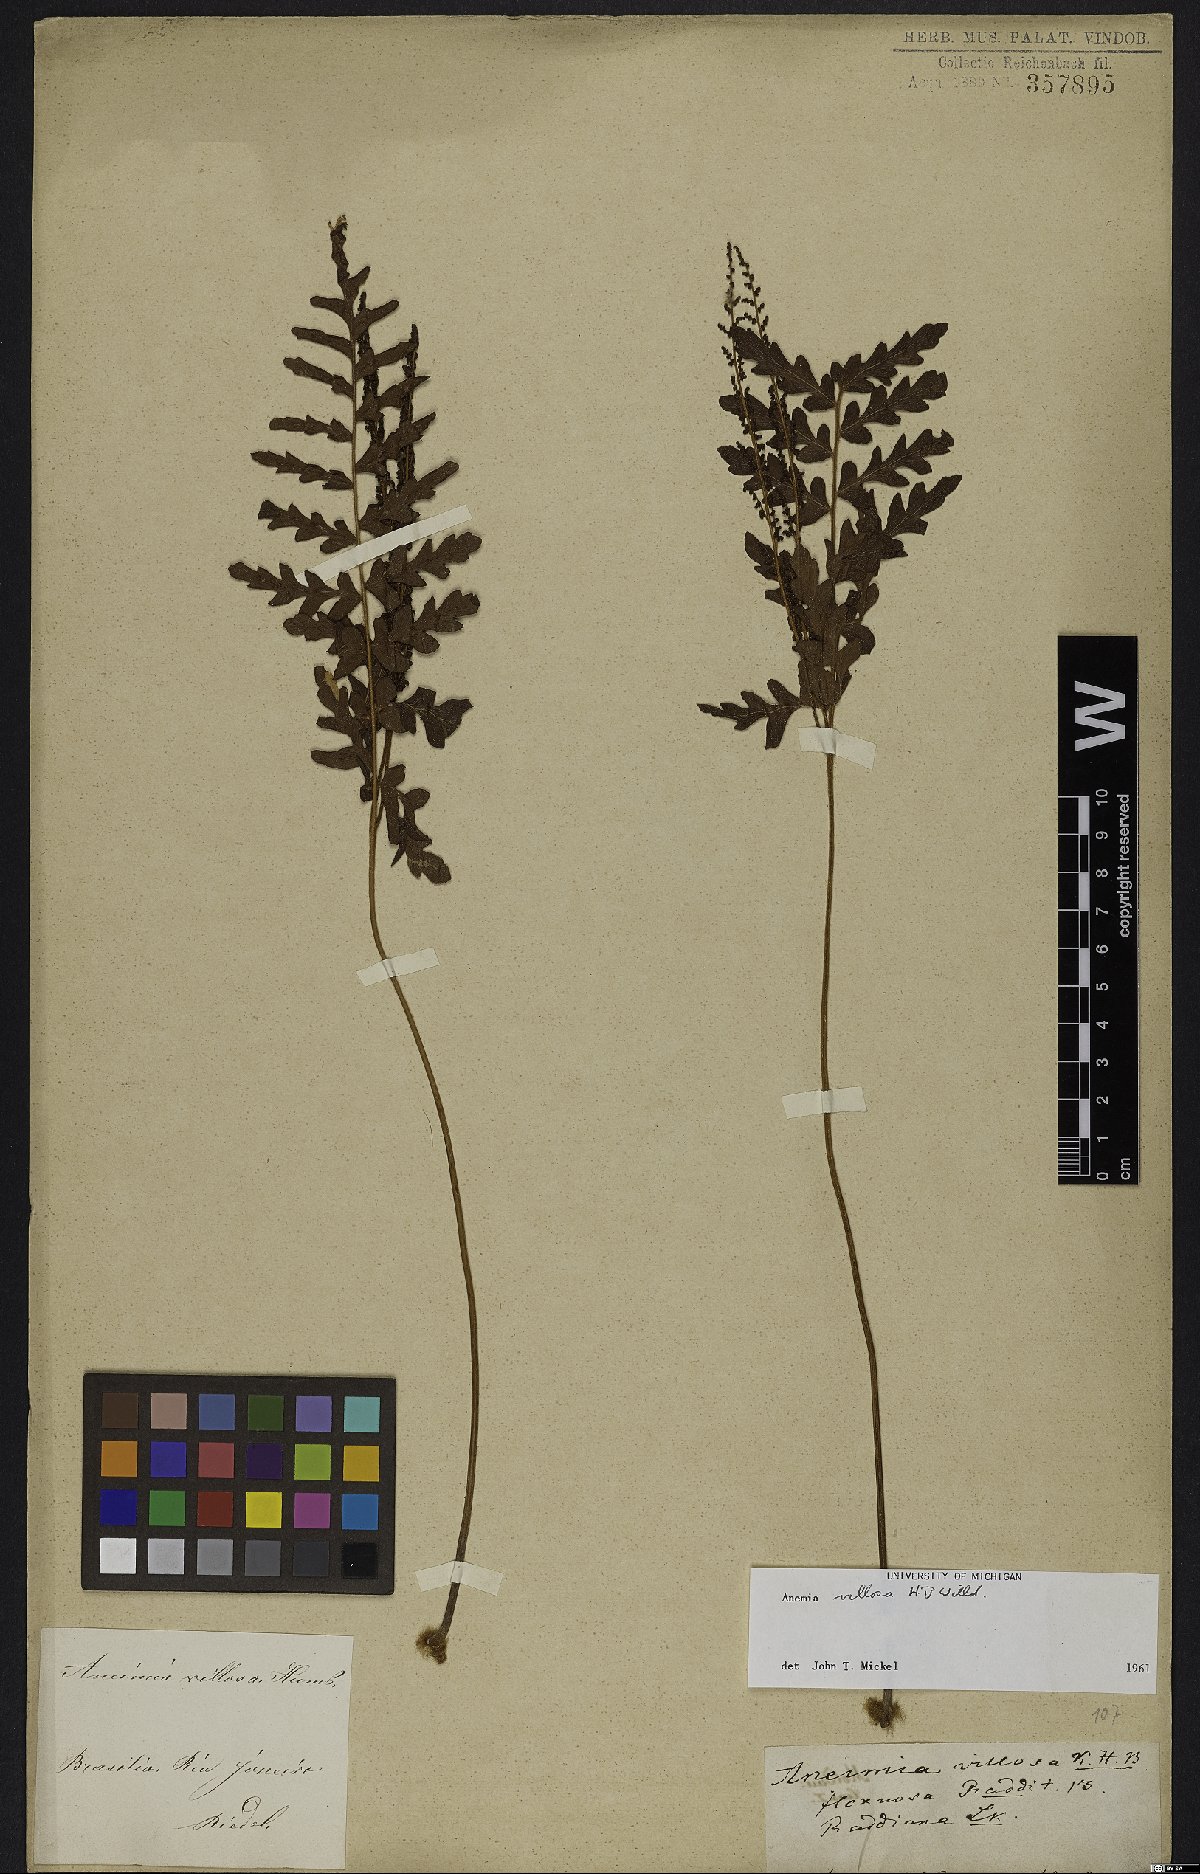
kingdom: Plantae
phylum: Tracheophyta
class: Polypodiopsida
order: Schizaeales
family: Anemiaceae
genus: Anemia
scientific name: Anemia villosa
